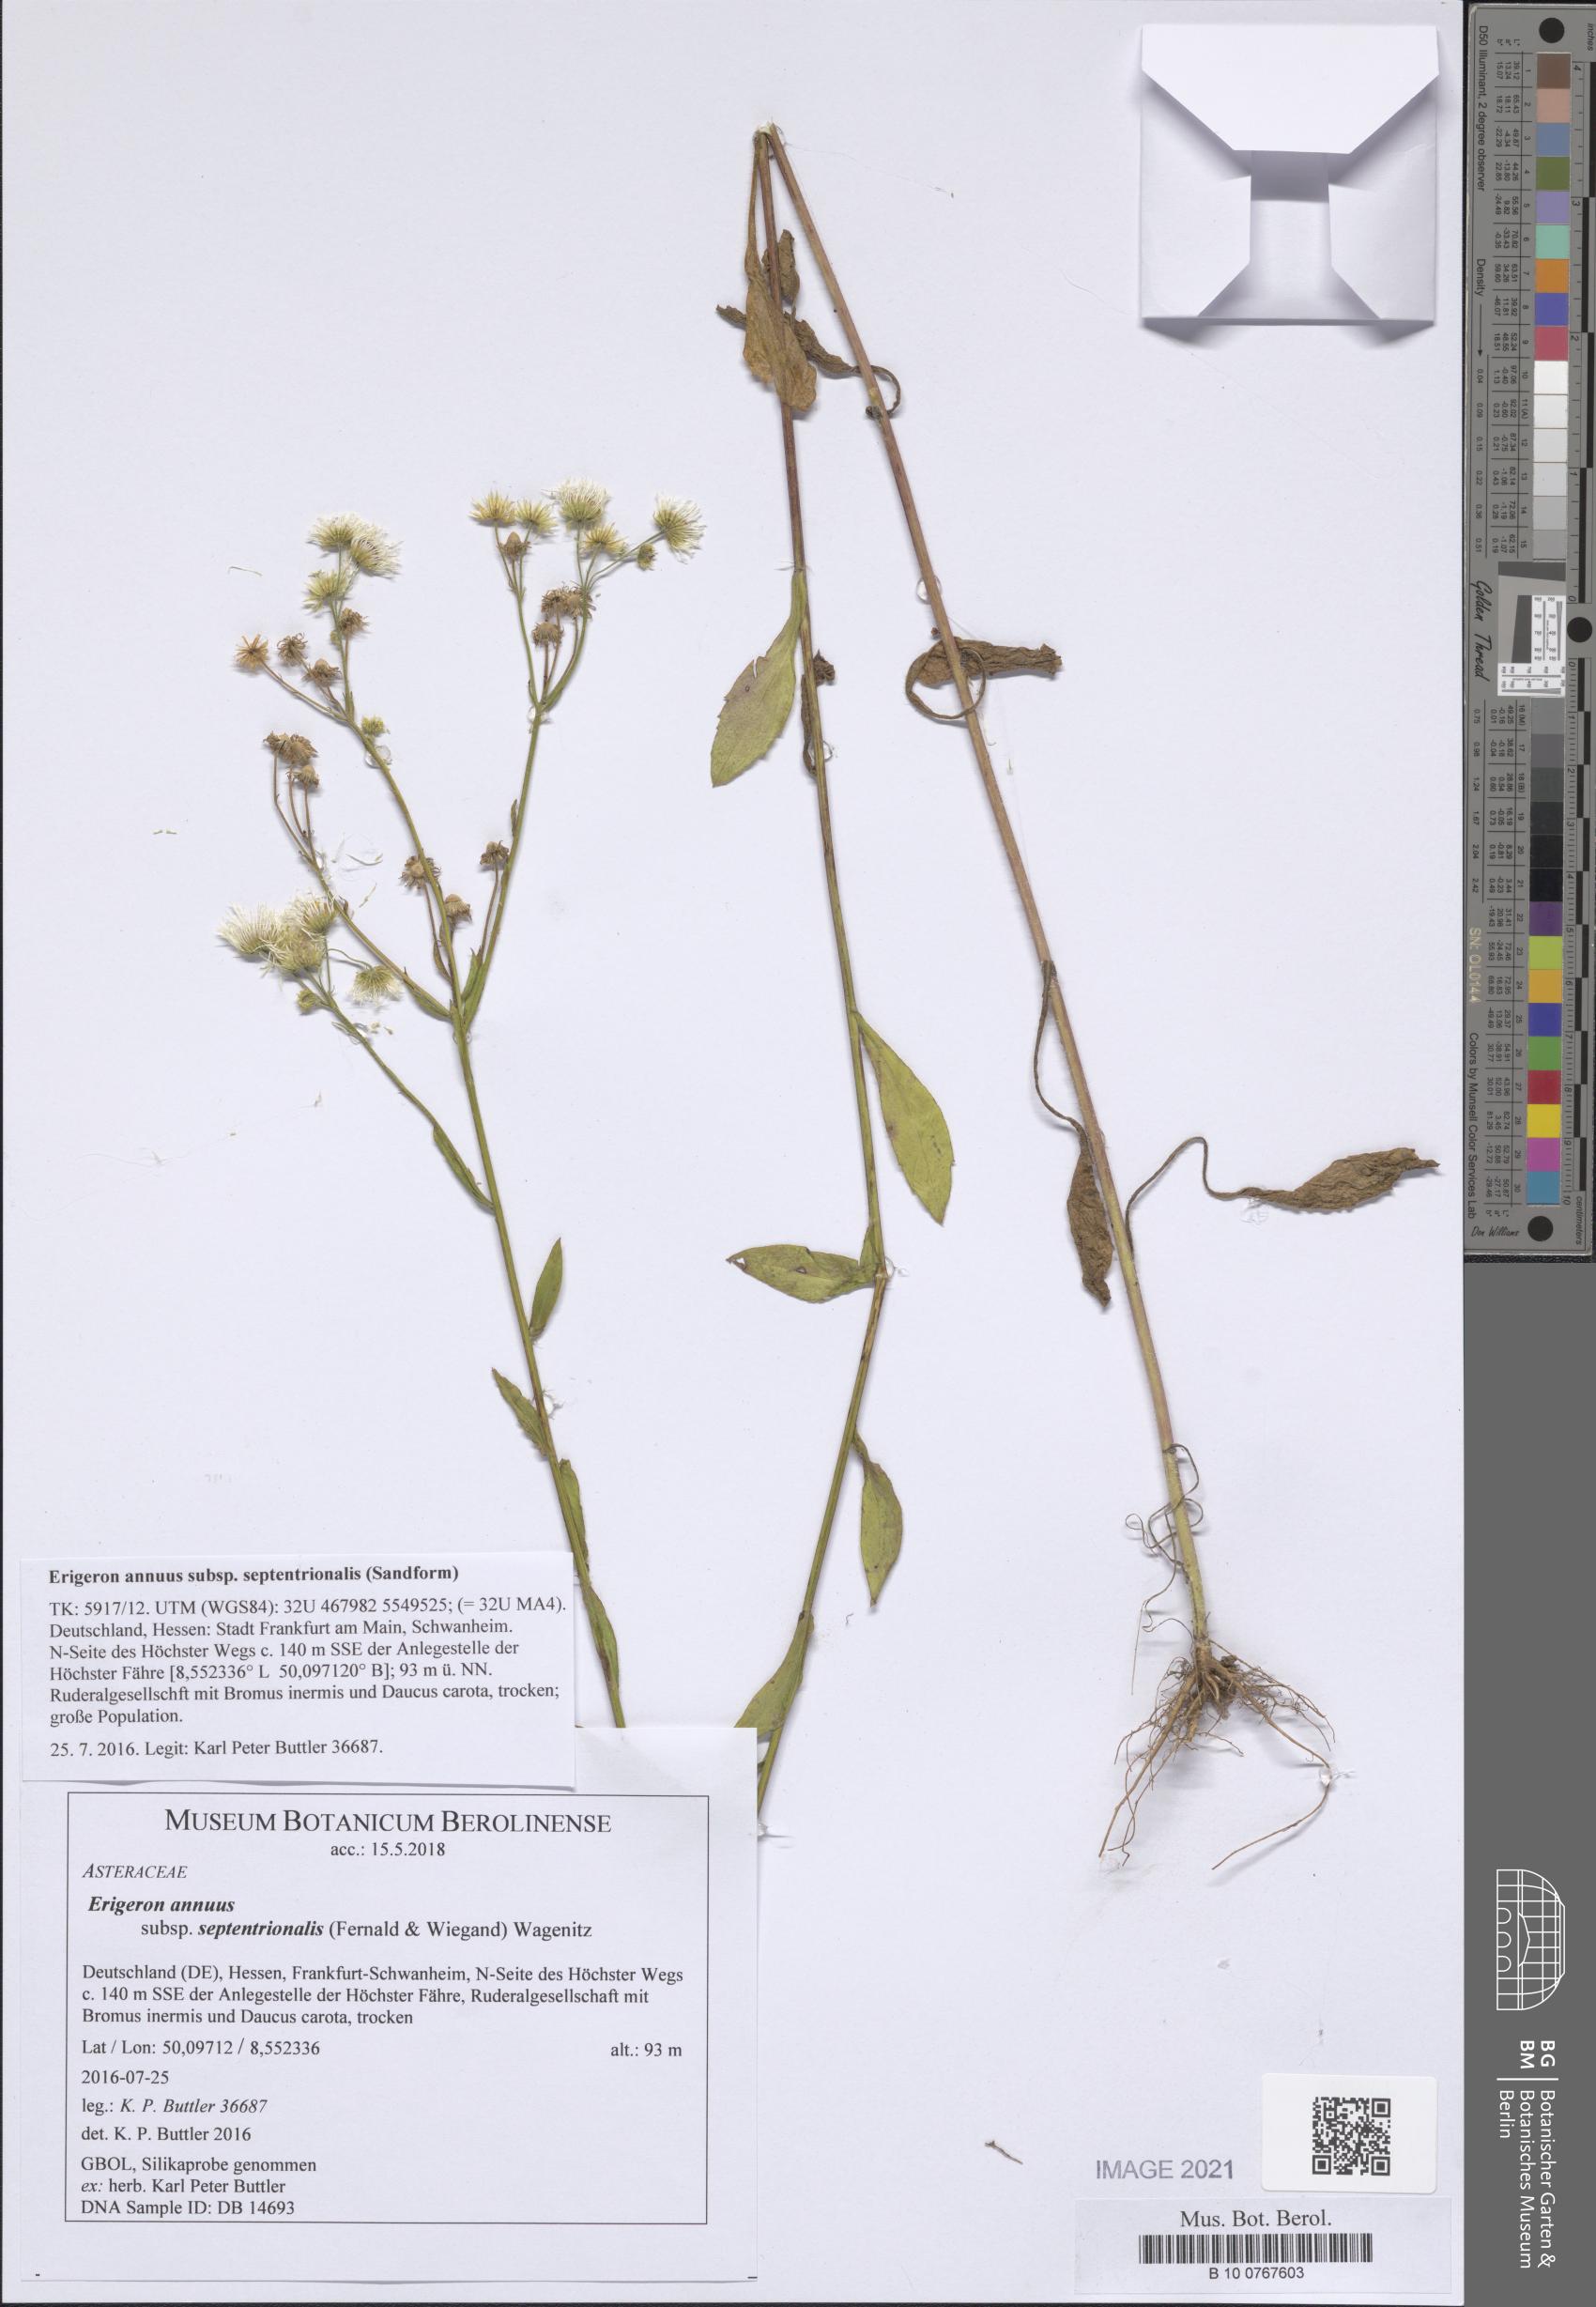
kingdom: Plantae
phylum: Tracheophyta
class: Magnoliopsida
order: Asterales
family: Asteraceae
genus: Erigeron
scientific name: Erigeron annuus
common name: Tall fleabane
